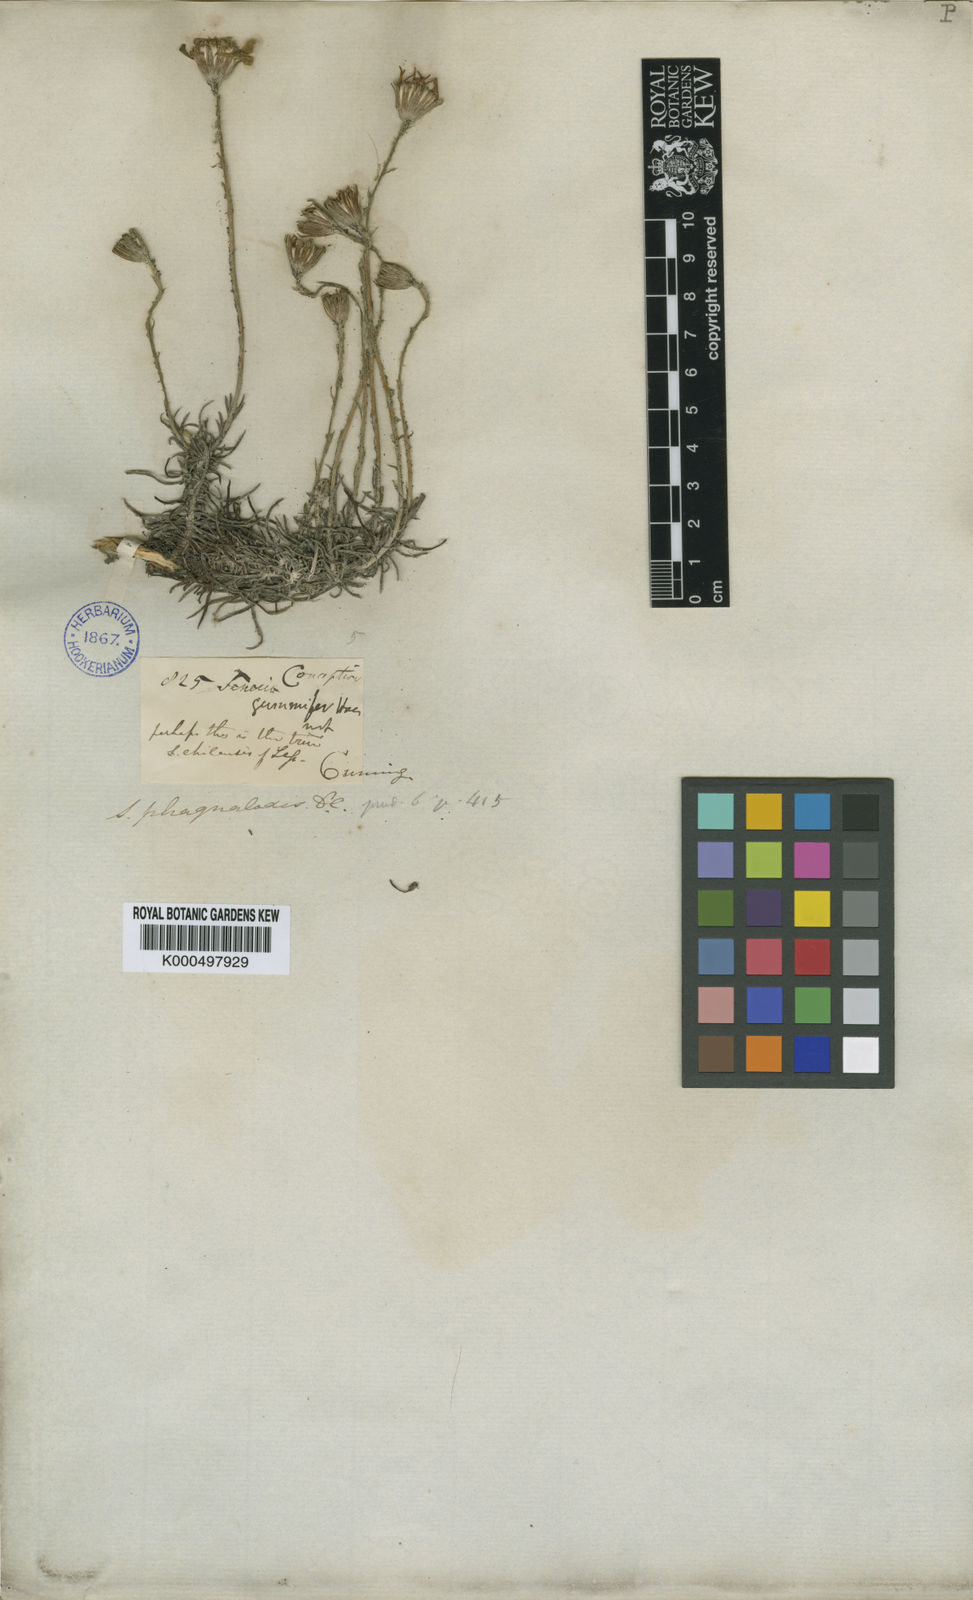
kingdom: Plantae
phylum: Tracheophyta
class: Magnoliopsida
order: Asterales
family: Asteraceae
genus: Senecio
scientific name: Senecio chilensis
